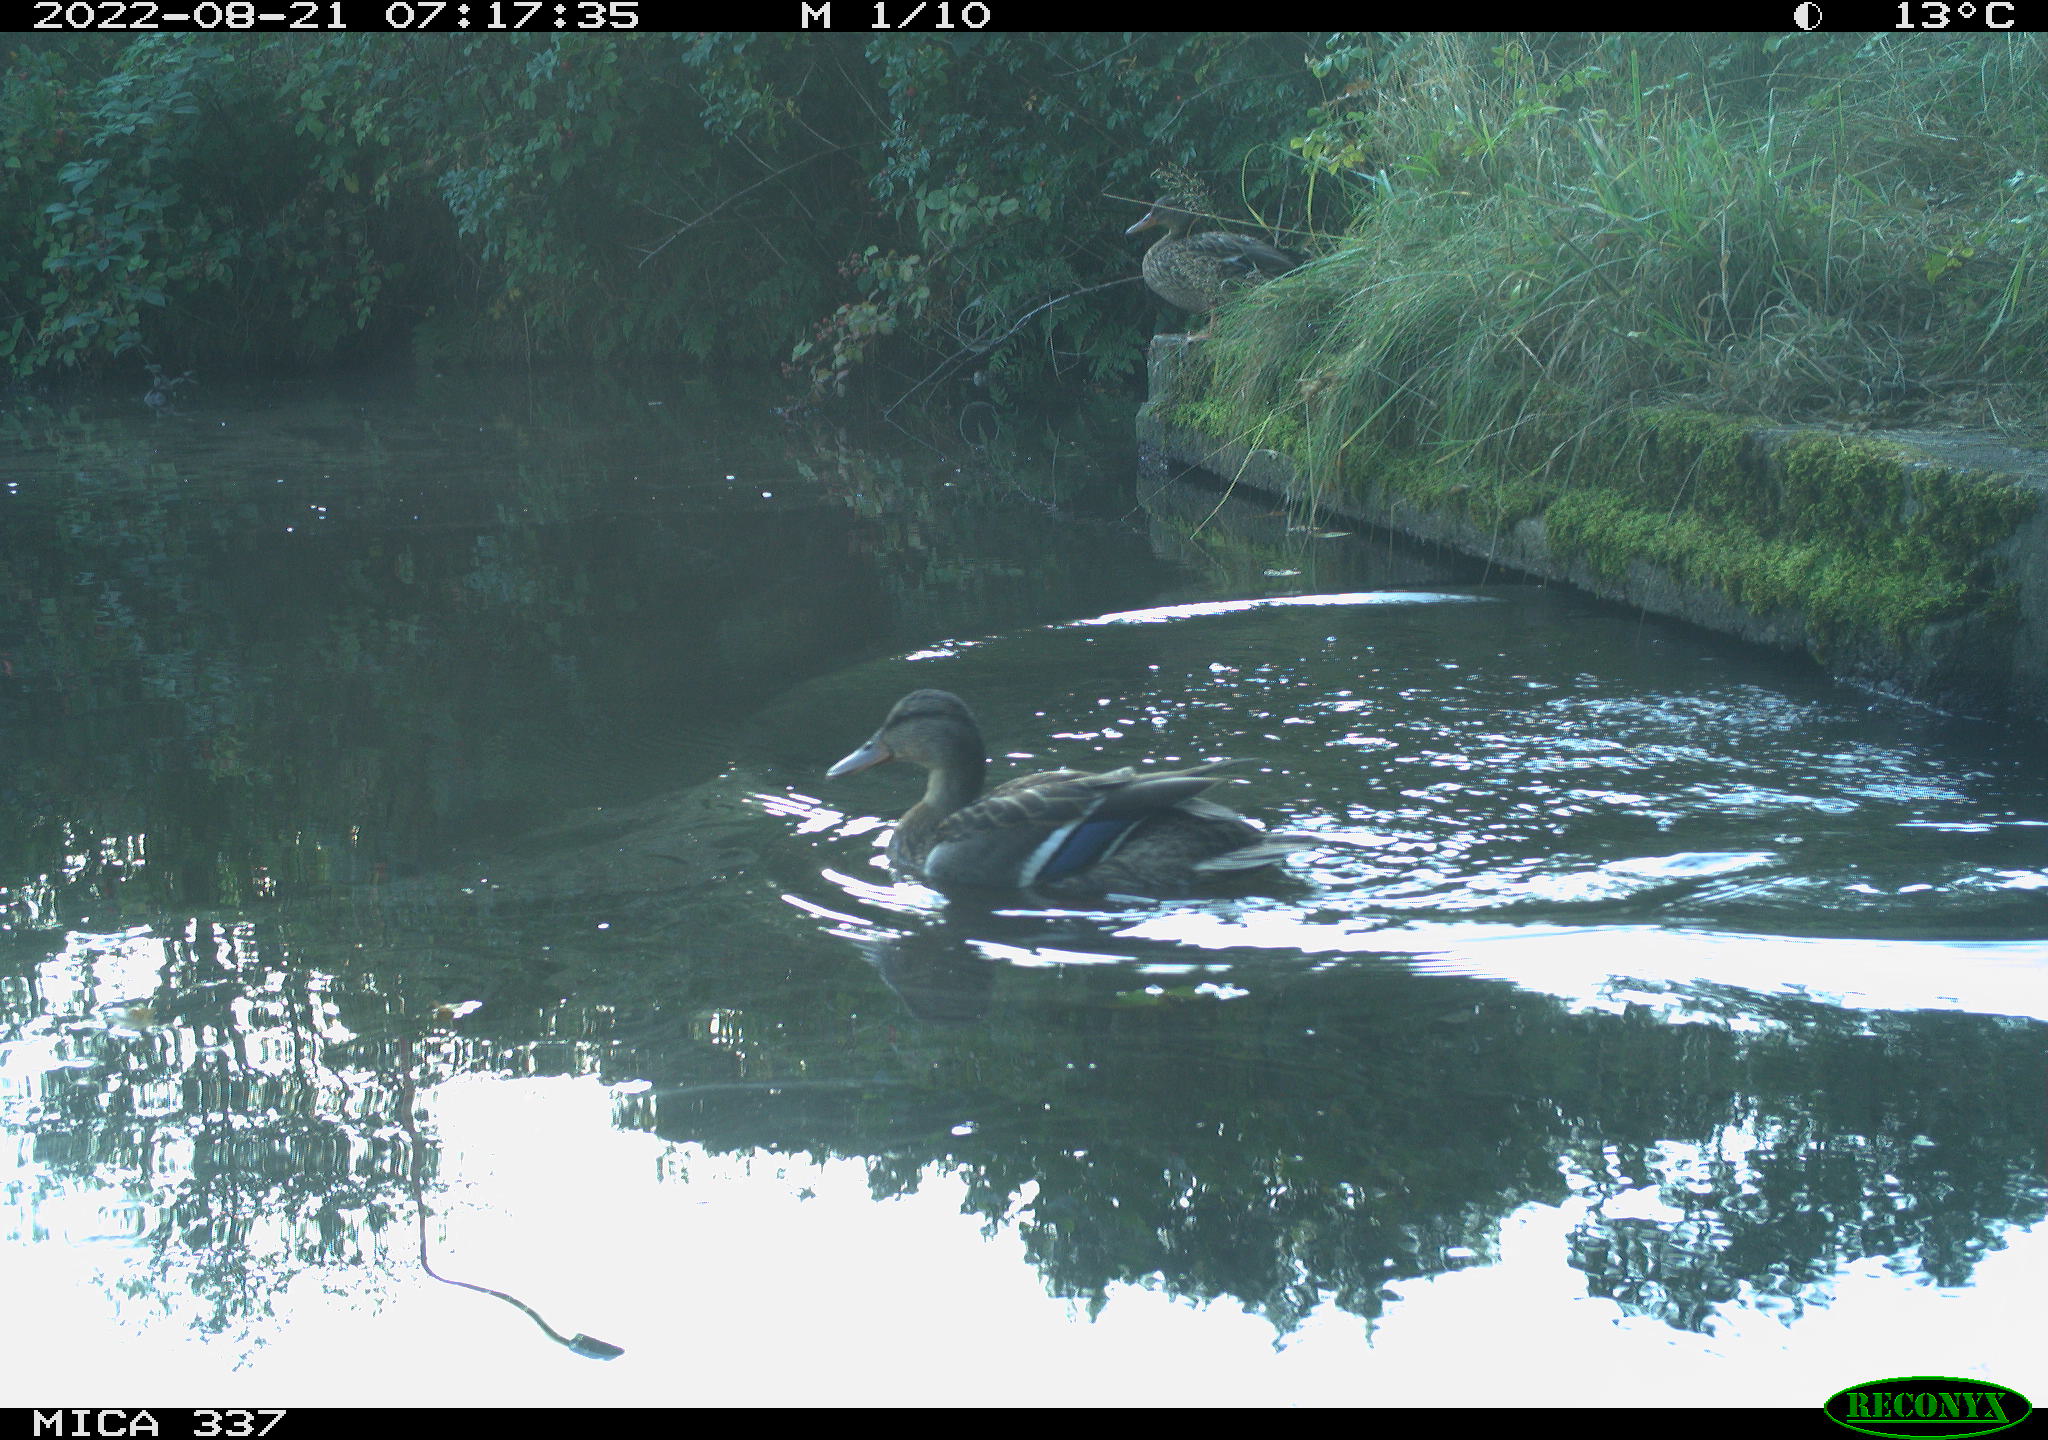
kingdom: Animalia
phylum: Chordata
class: Aves
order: Anseriformes
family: Anatidae
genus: Anas
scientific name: Anas platyrhynchos
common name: Mallard
